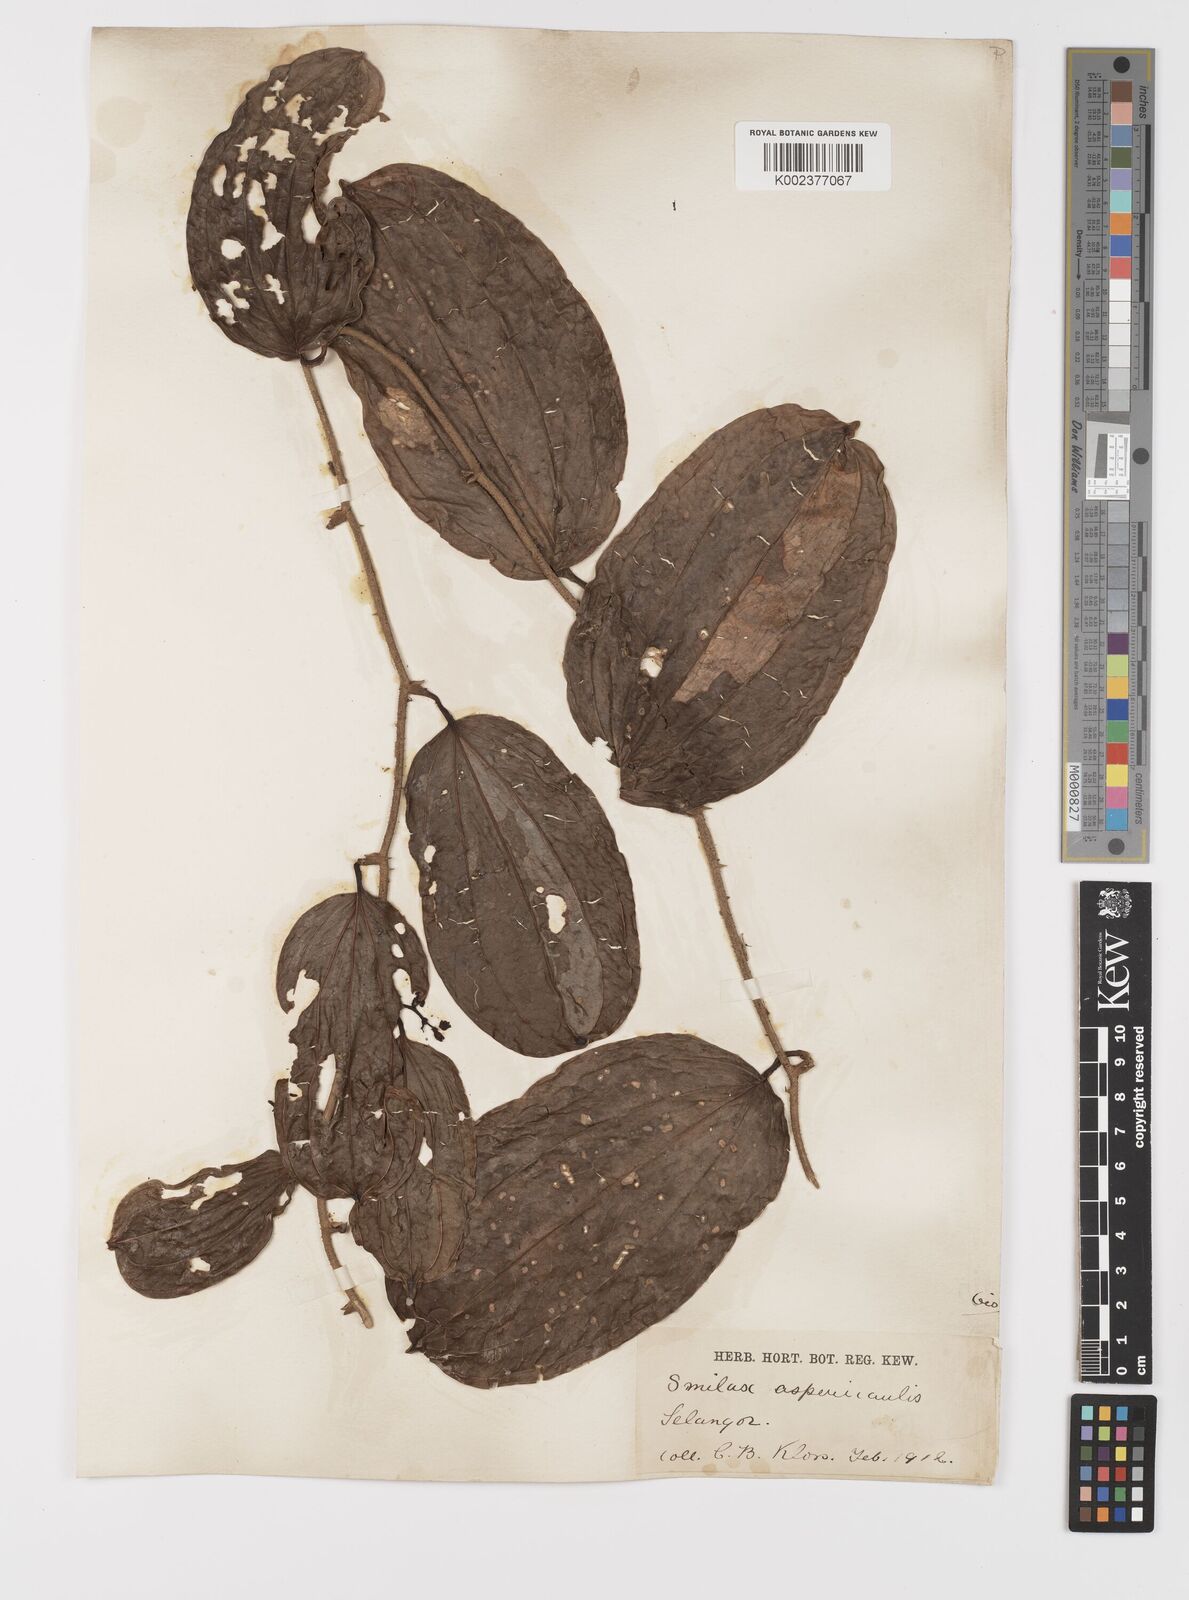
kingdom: Plantae
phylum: Tracheophyta
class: Liliopsida
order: Liliales
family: Smilacaceae
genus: Smilax
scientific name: Smilax aspericaulis
